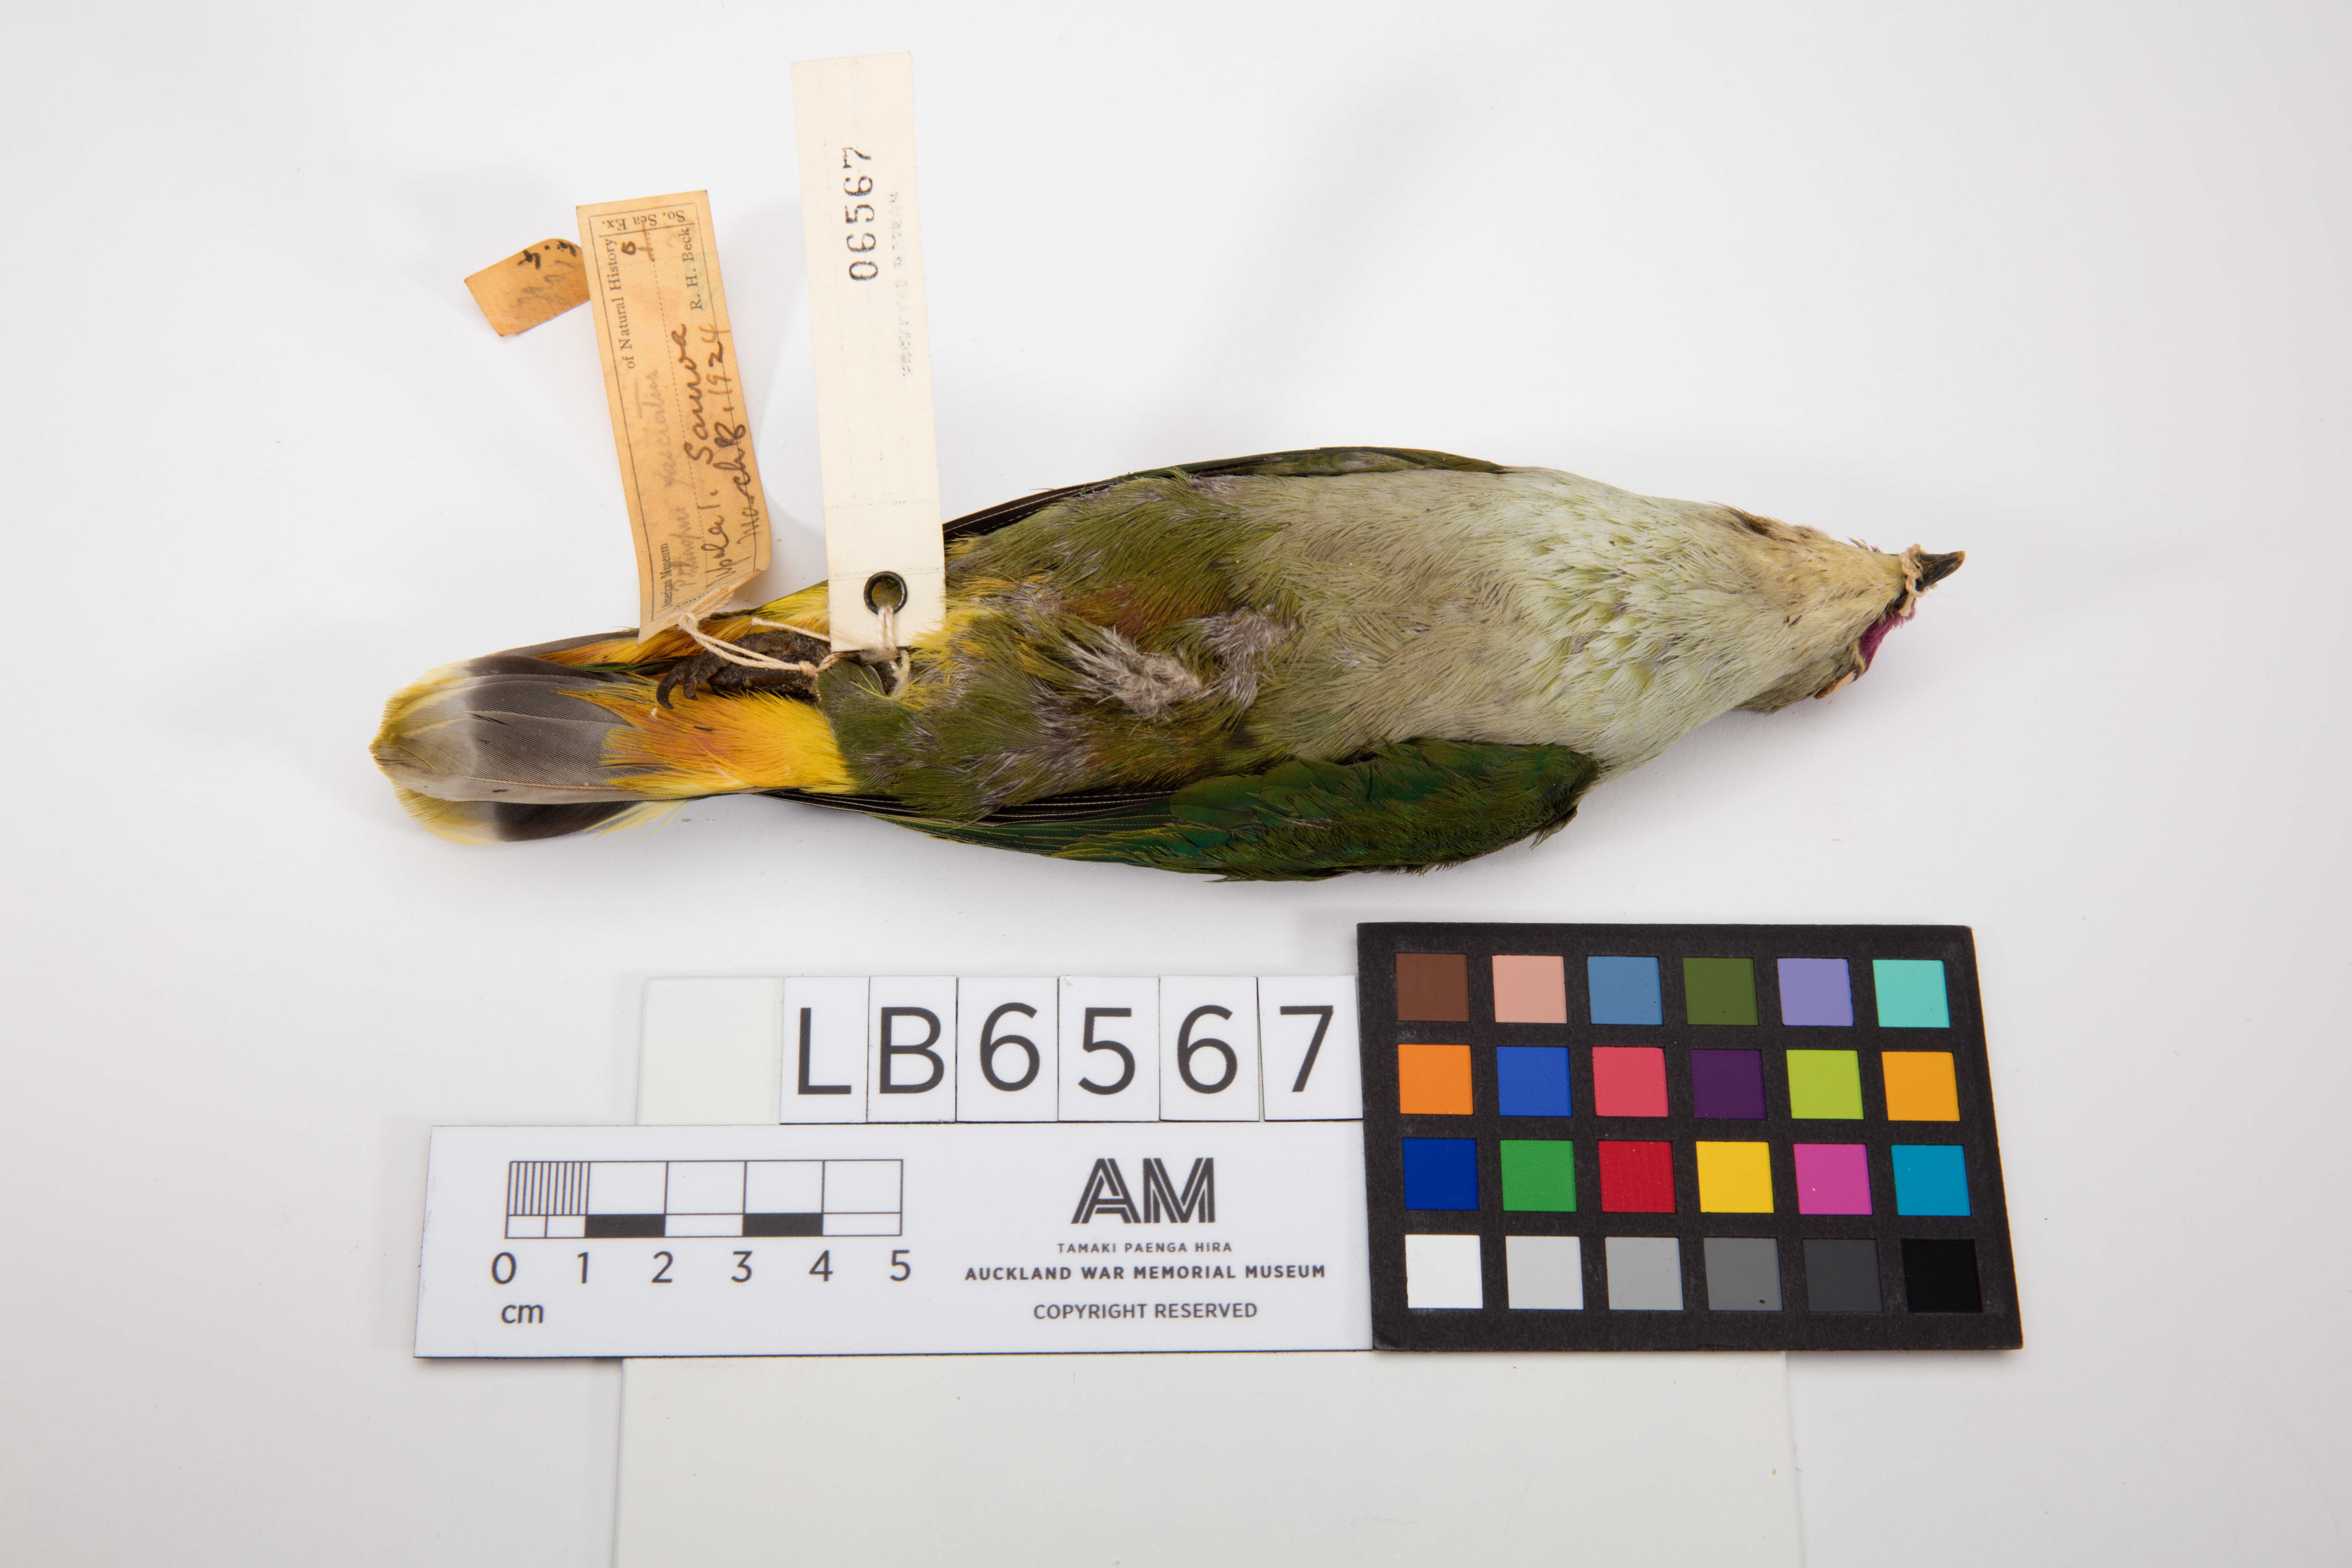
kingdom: Animalia
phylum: Chordata
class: Aves
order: Columbiformes
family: Columbidae
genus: Ptilinopus
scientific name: Ptilinopus porphyraceus
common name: Crimson-crowned fruit dove
